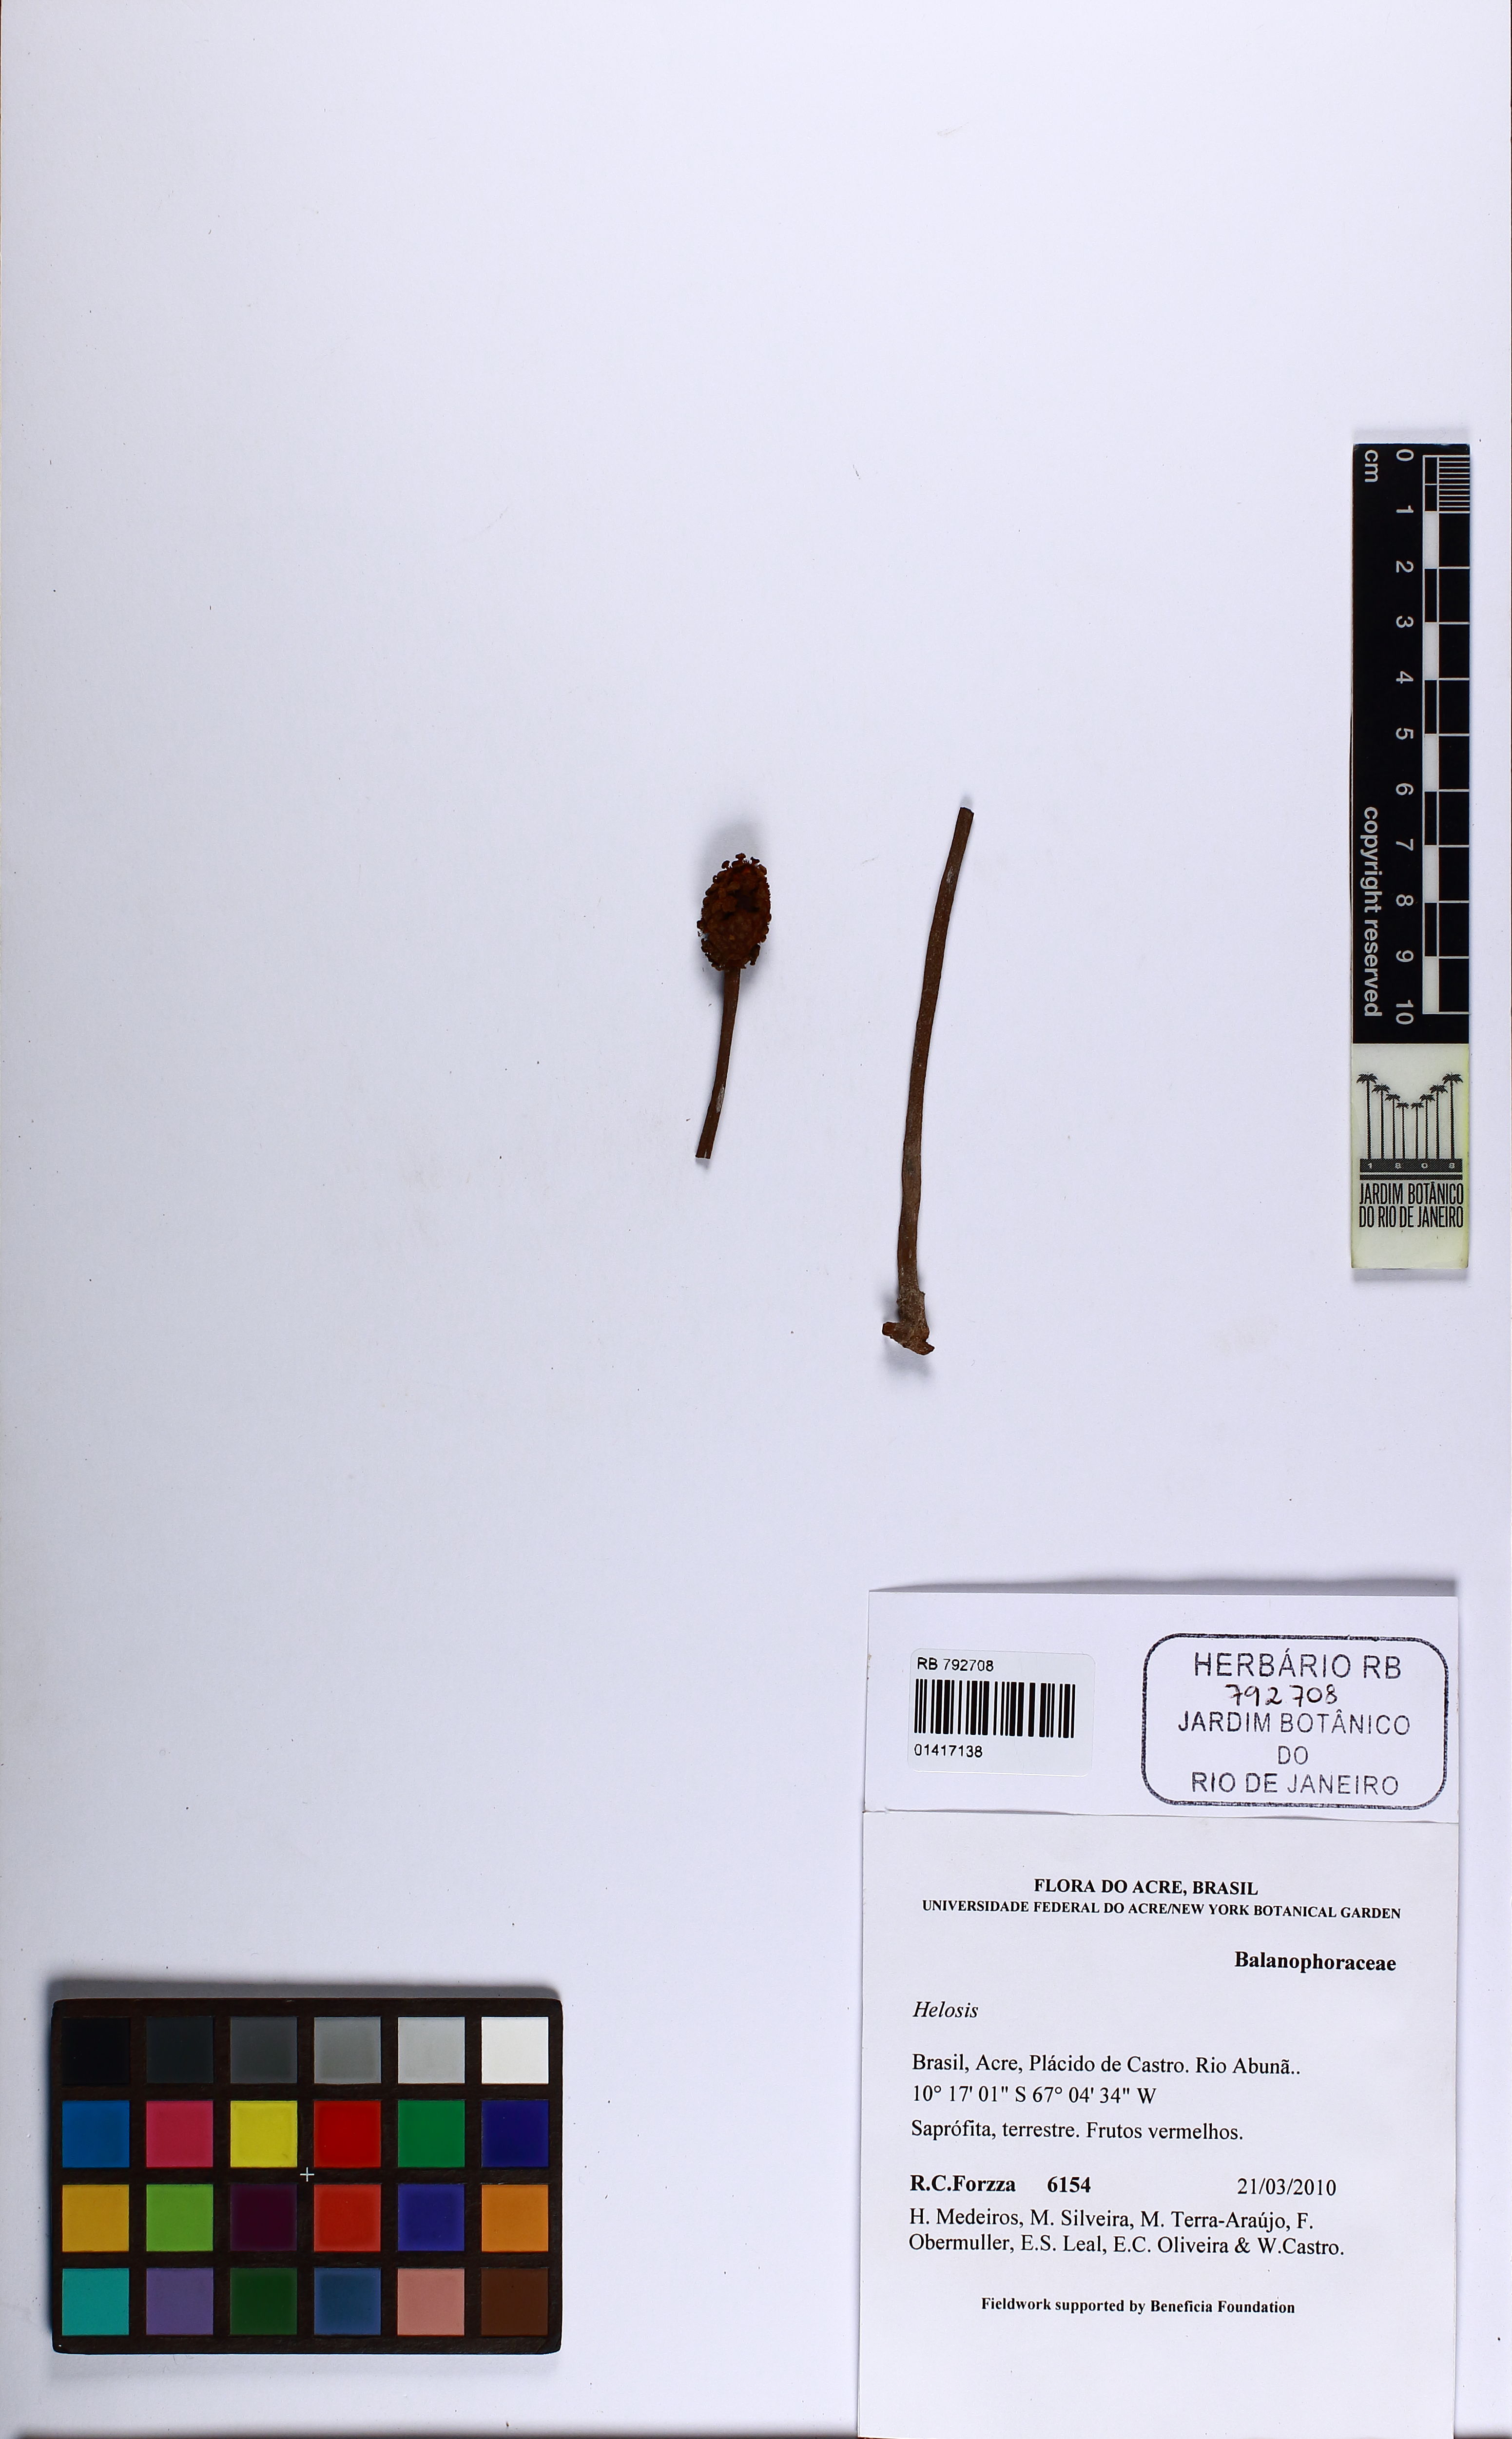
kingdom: Plantae
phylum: Tracheophyta
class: Magnoliopsida
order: Santalales
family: Balanophoraceae
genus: Helosis
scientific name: Helosis
